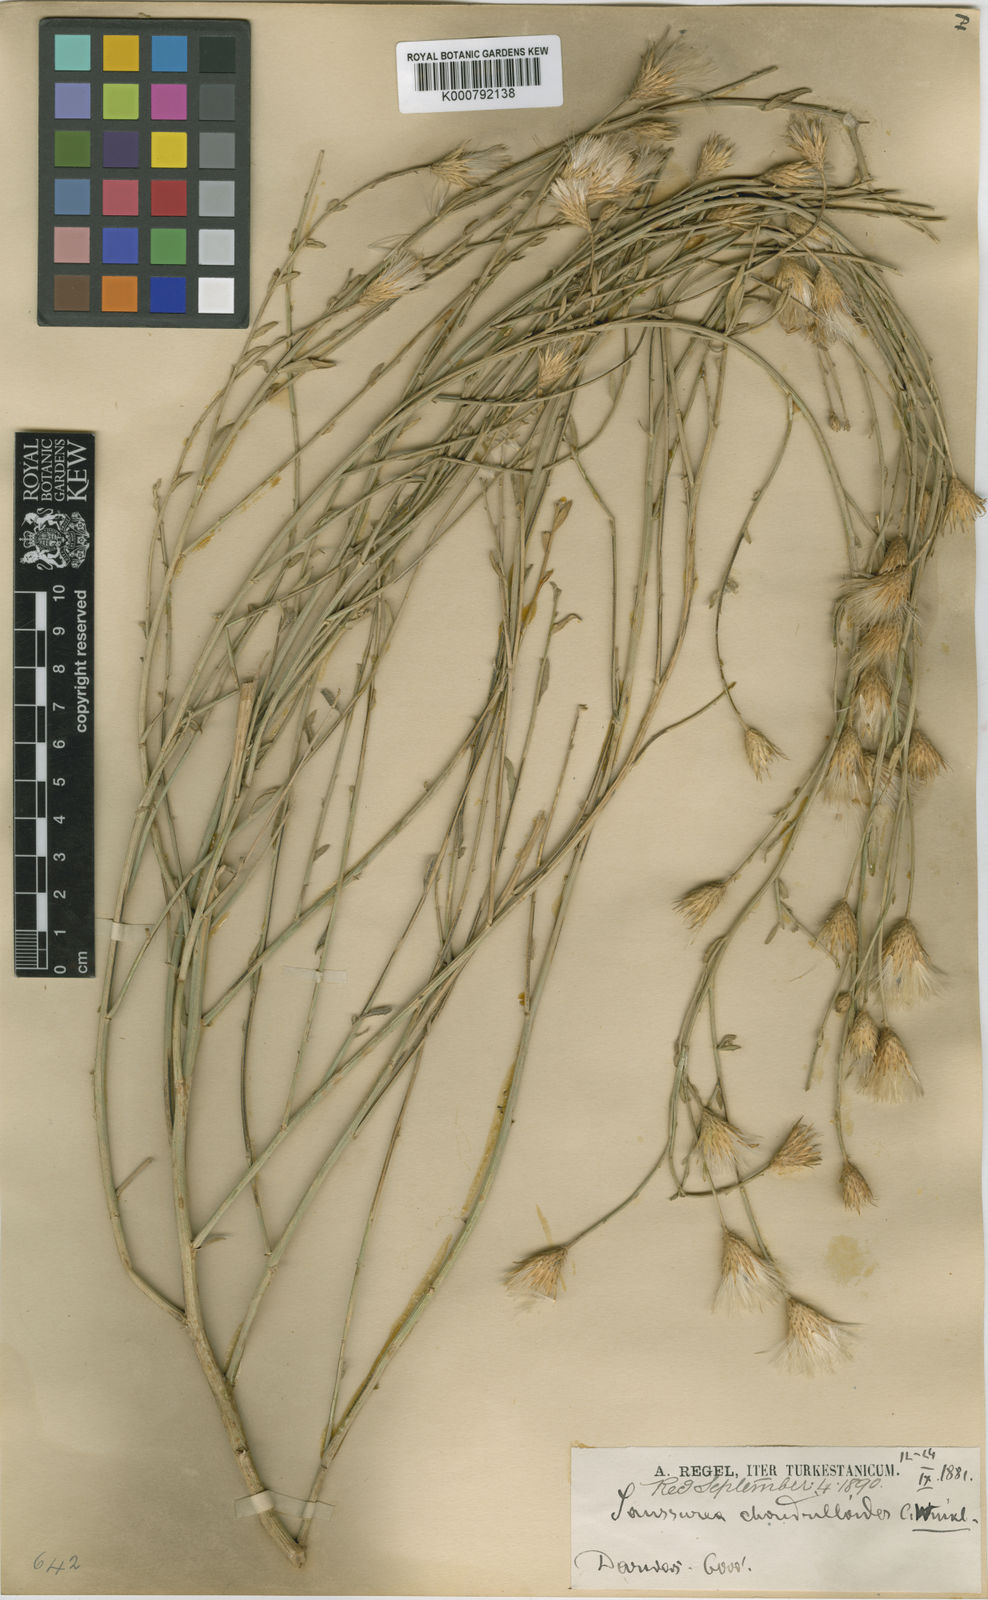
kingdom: Plantae
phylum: Tracheophyta
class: Magnoliopsida
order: Asterales
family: Asteraceae
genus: Jurinea
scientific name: Jurinea
